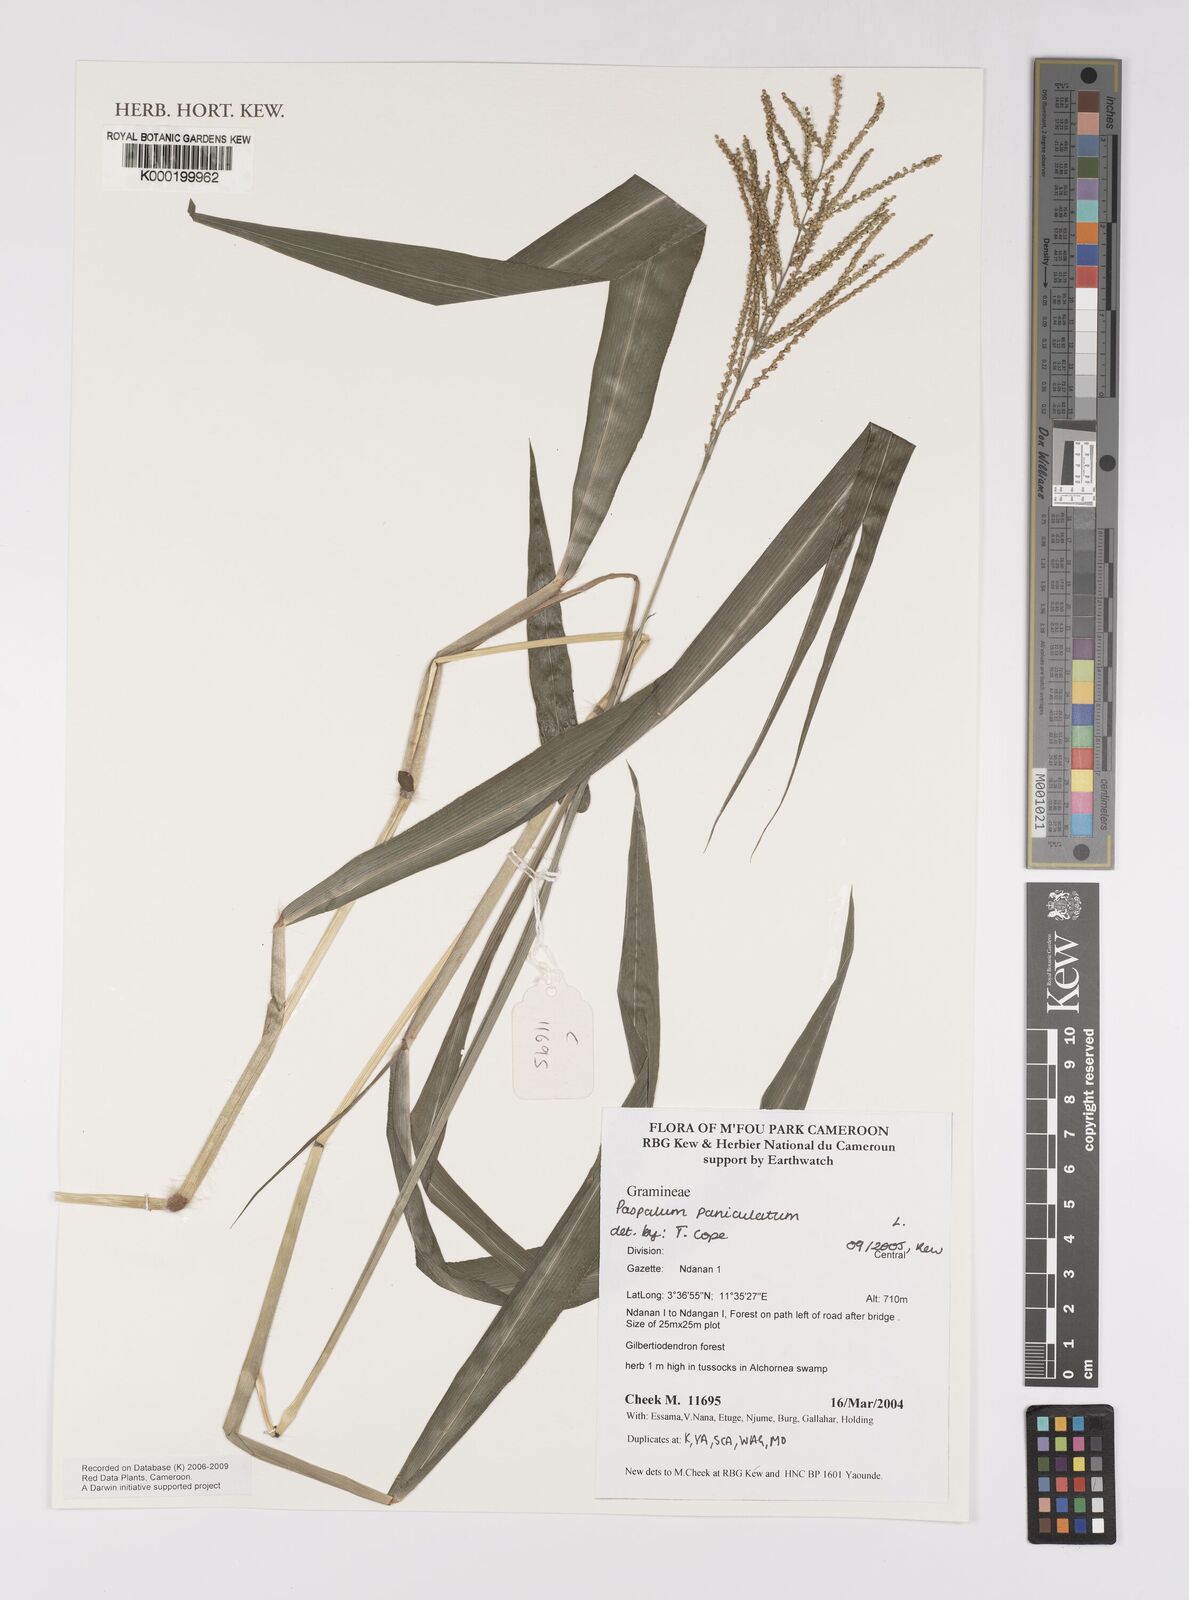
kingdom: Plantae
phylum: Tracheophyta
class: Liliopsida
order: Poales
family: Poaceae
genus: Paspalum
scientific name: Paspalum paniculatum
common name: Arrocillo
